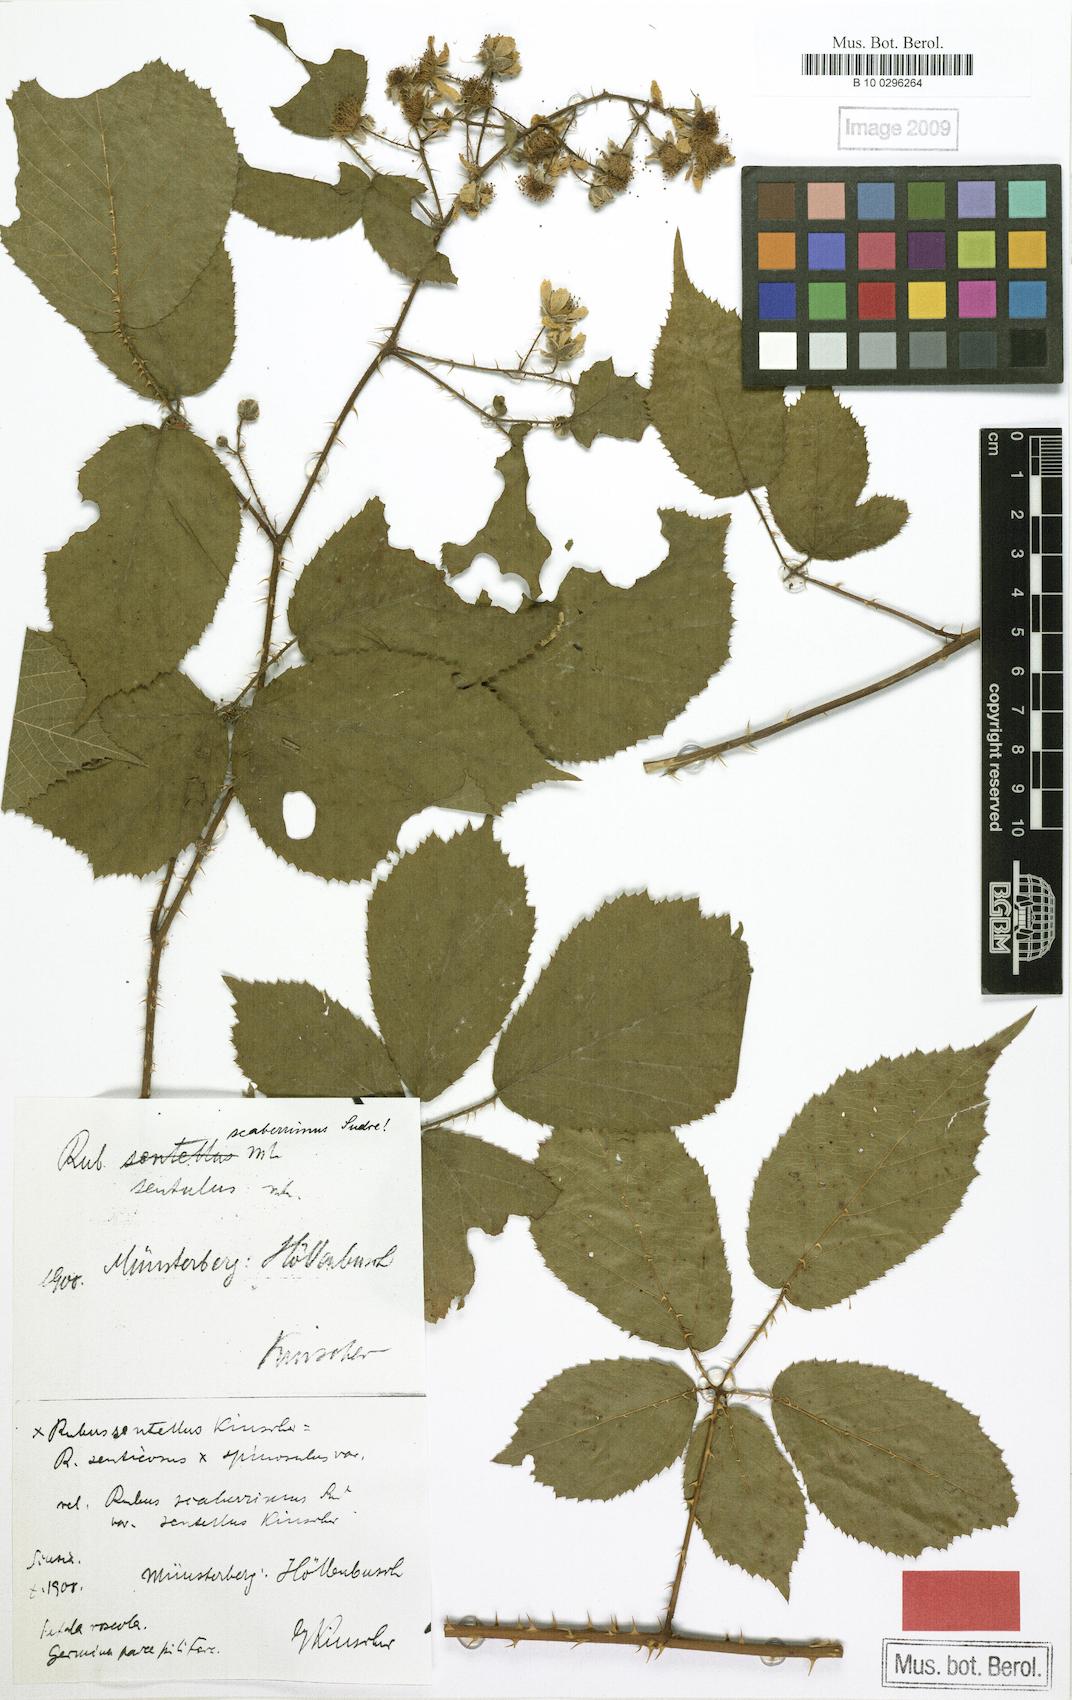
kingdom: Plantae
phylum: Tracheophyta
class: Magnoliopsida
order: Rosales
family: Rosaceae
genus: Rubus
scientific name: Rubus sentellus
